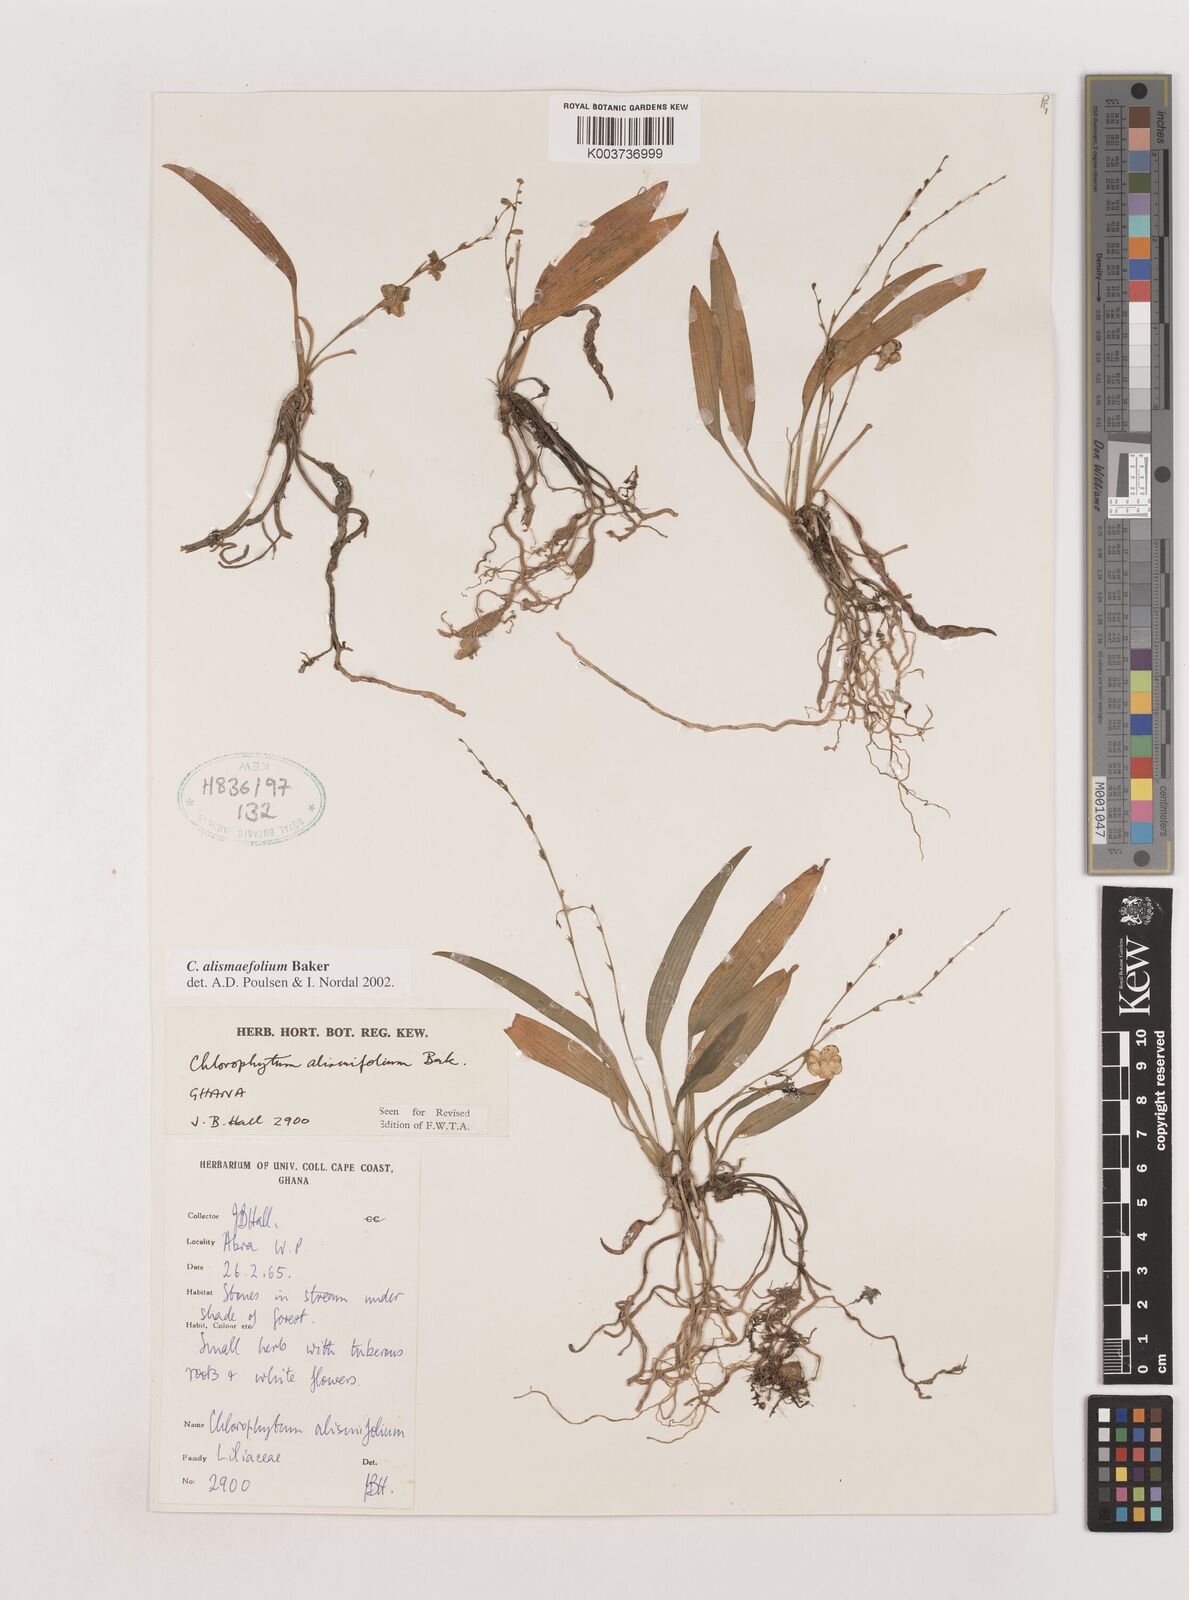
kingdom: Plantae
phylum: Tracheophyta
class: Liliopsida
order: Asparagales
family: Asparagaceae
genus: Chlorophytum
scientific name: Chlorophytum alismifolium
